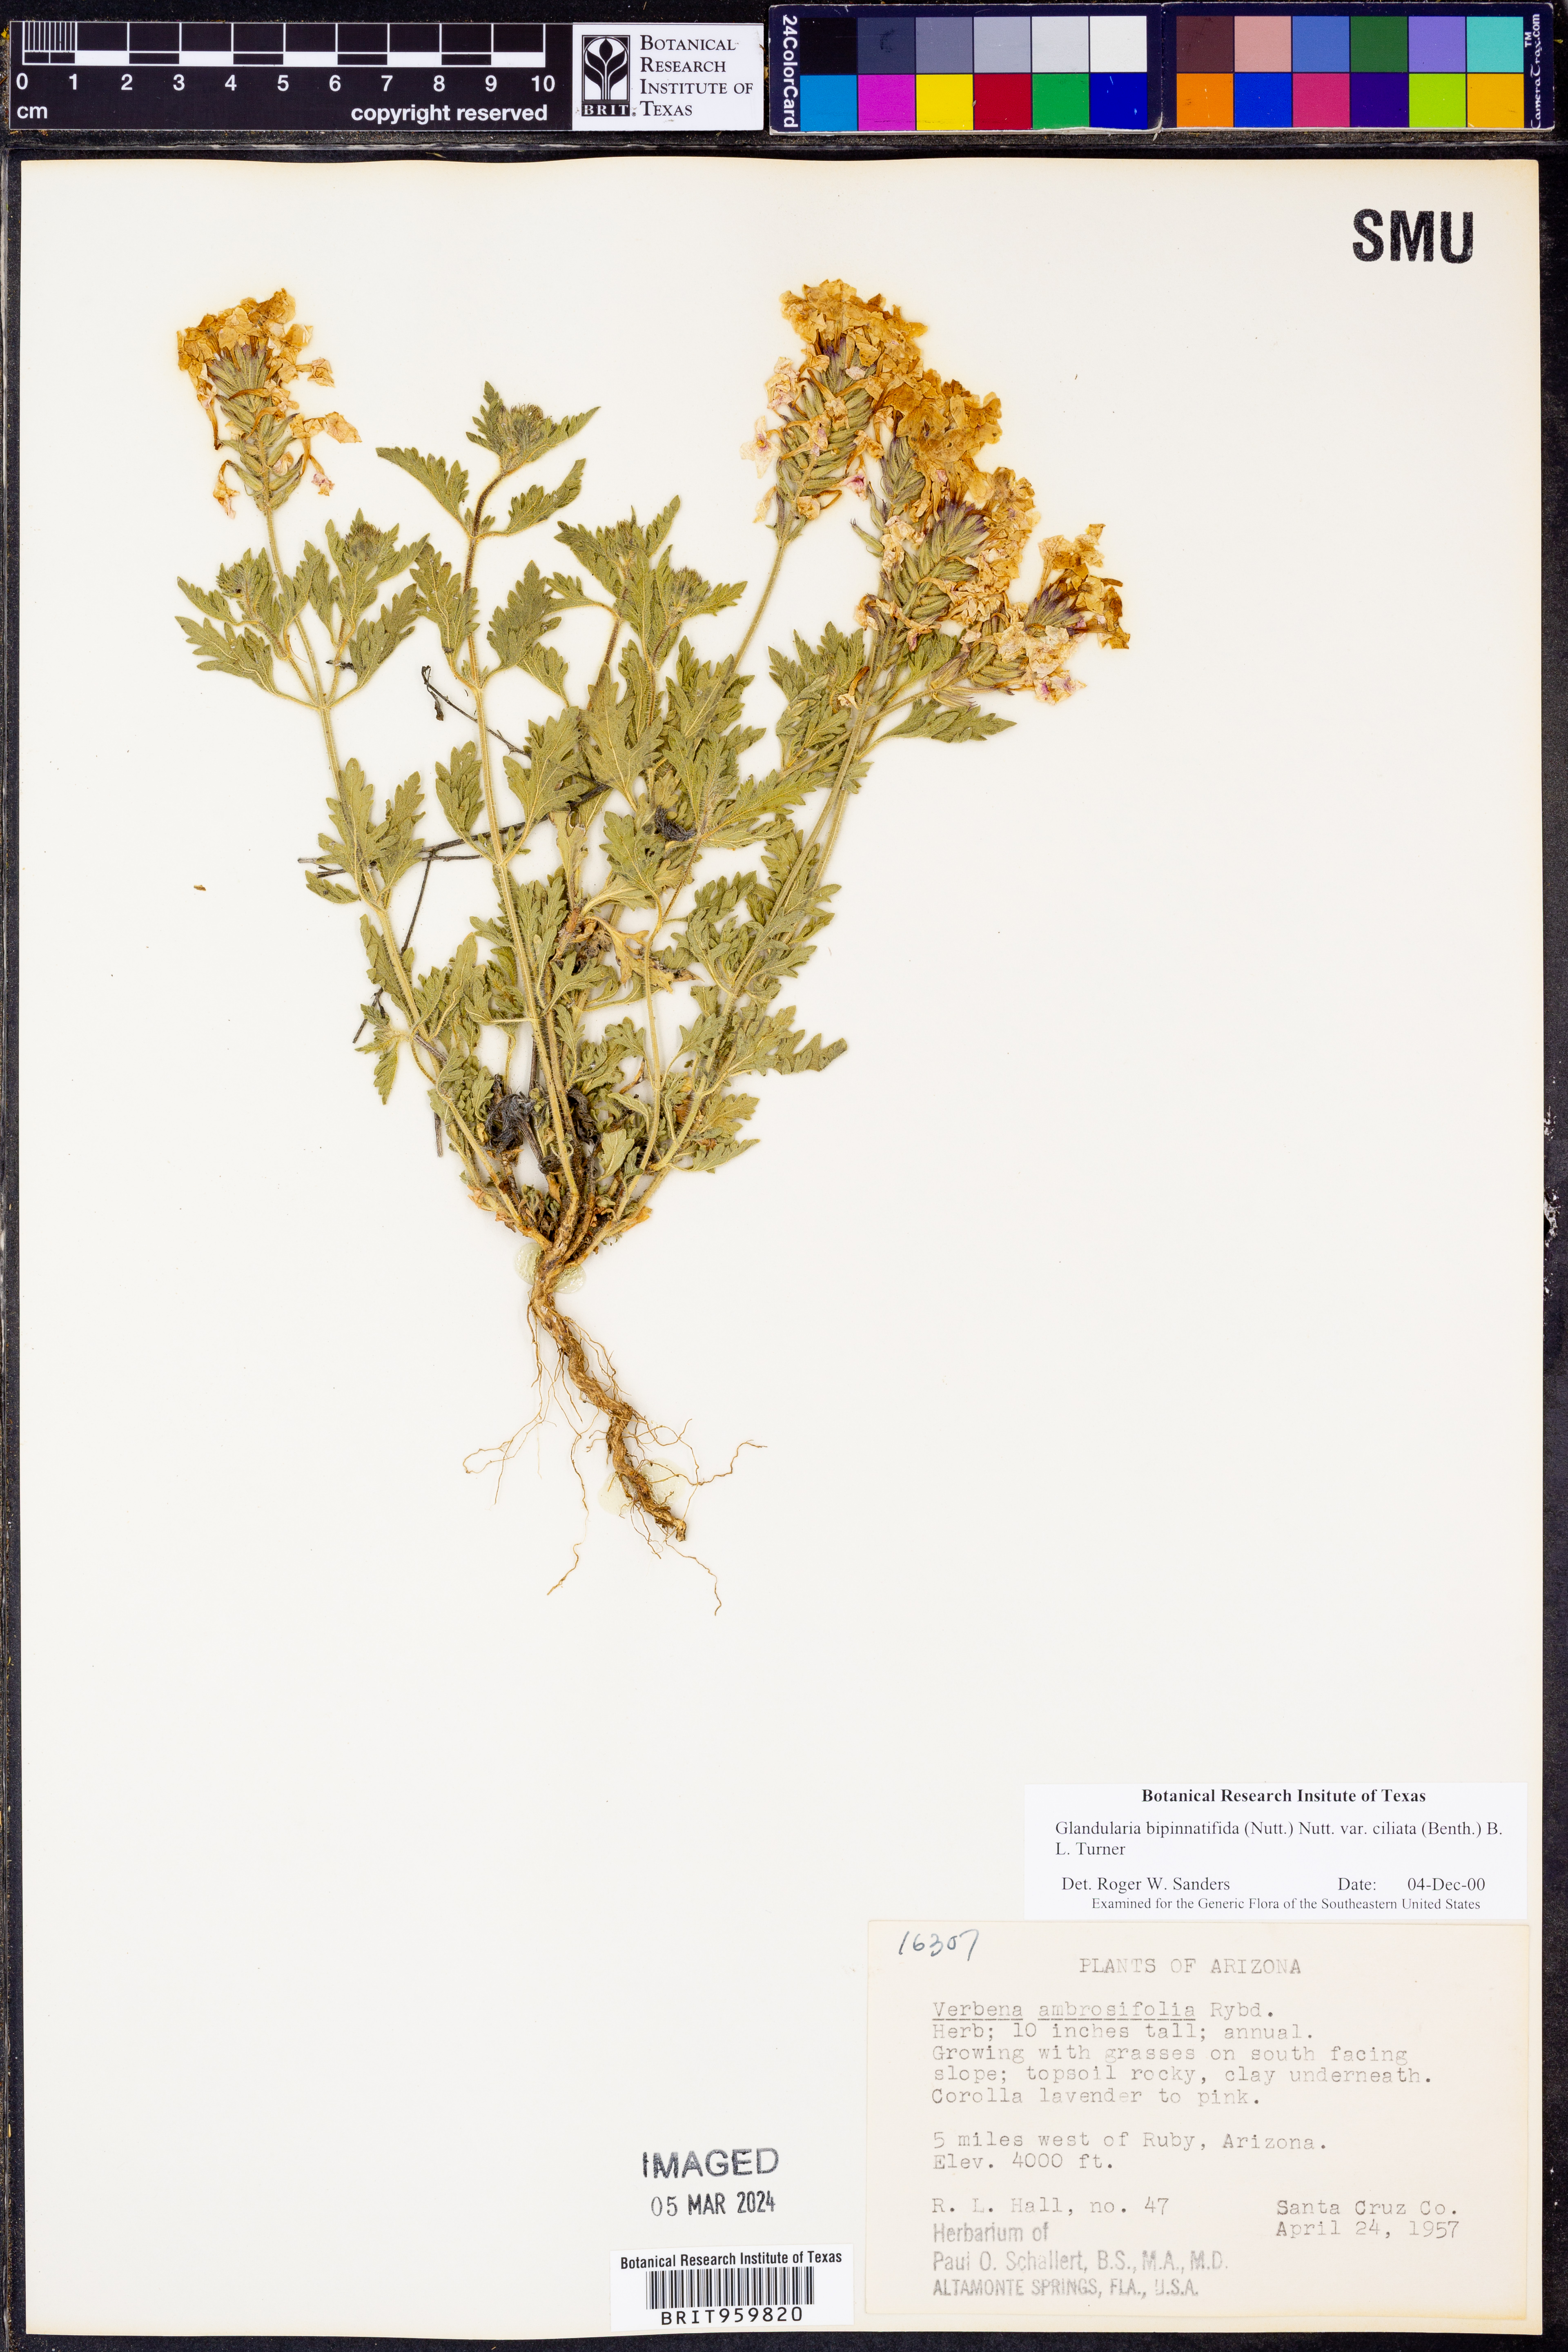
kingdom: Plantae
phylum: Tracheophyta
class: Magnoliopsida
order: Lamiales
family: Verbenaceae
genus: Verbena
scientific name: Verbena gooddingii
